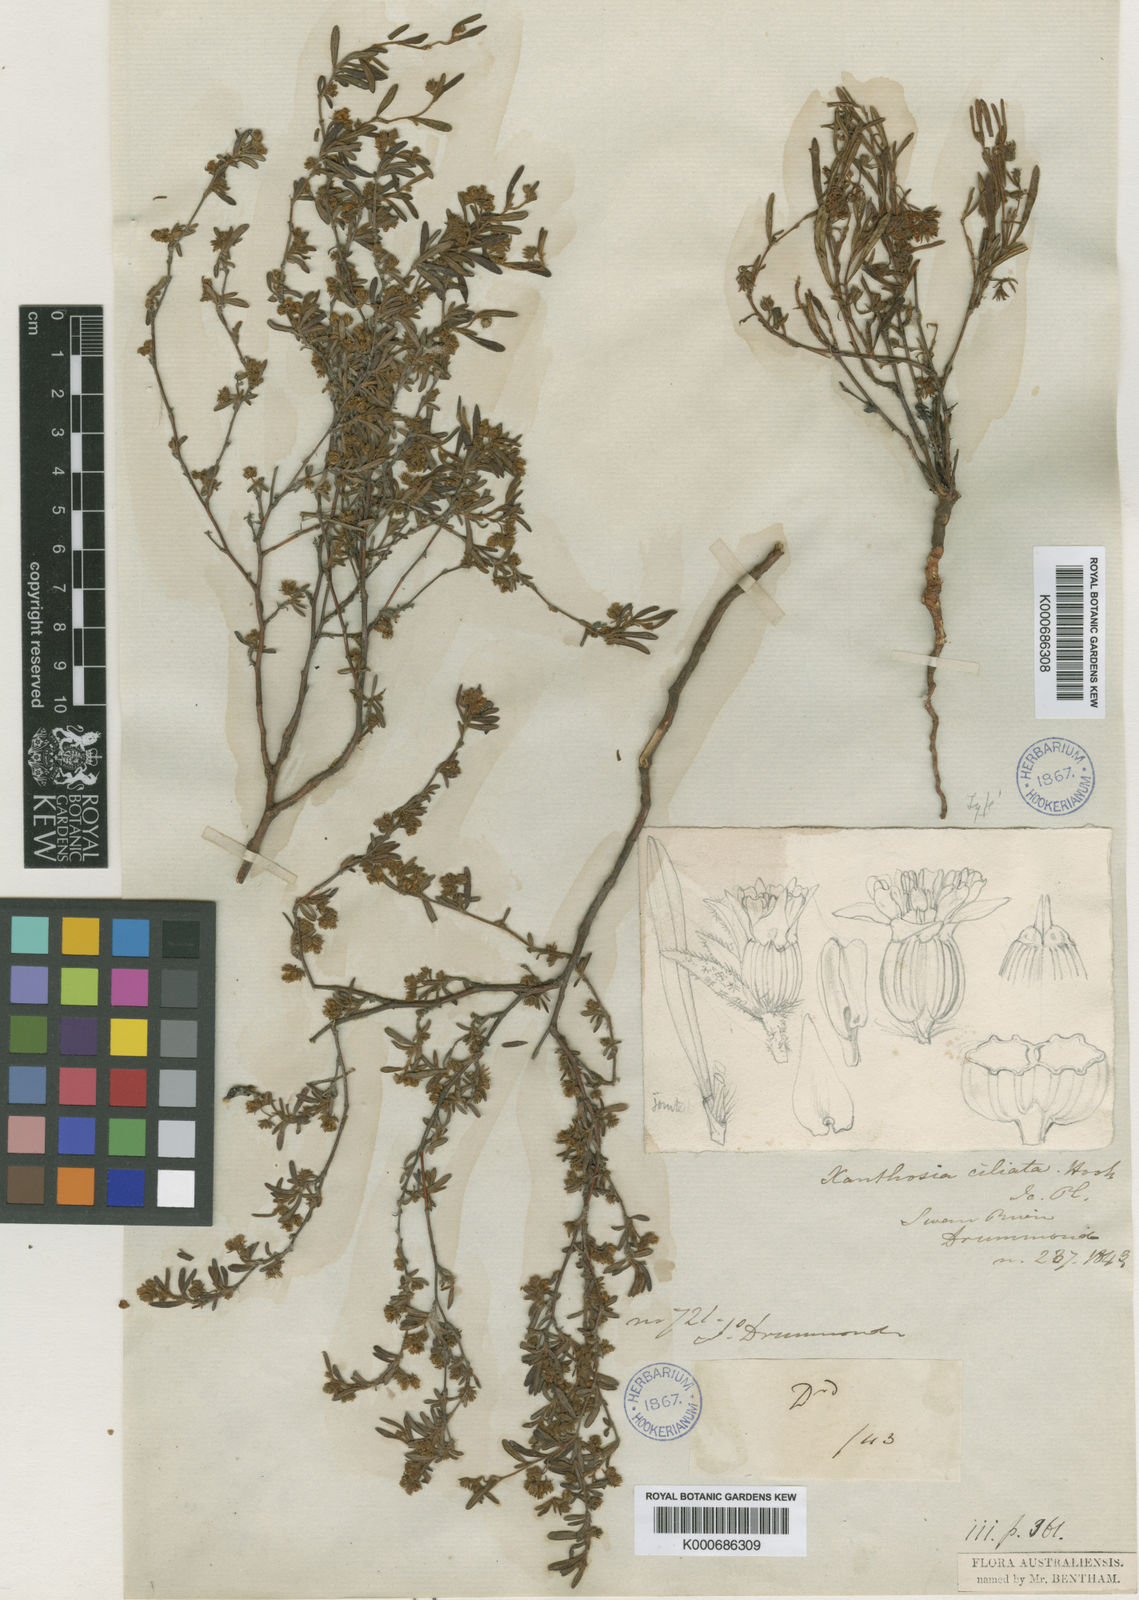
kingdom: Plantae
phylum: Tracheophyta
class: Magnoliopsida
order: Apiales
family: Apiaceae
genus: Xanthosia
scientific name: Xanthosia ciliata
